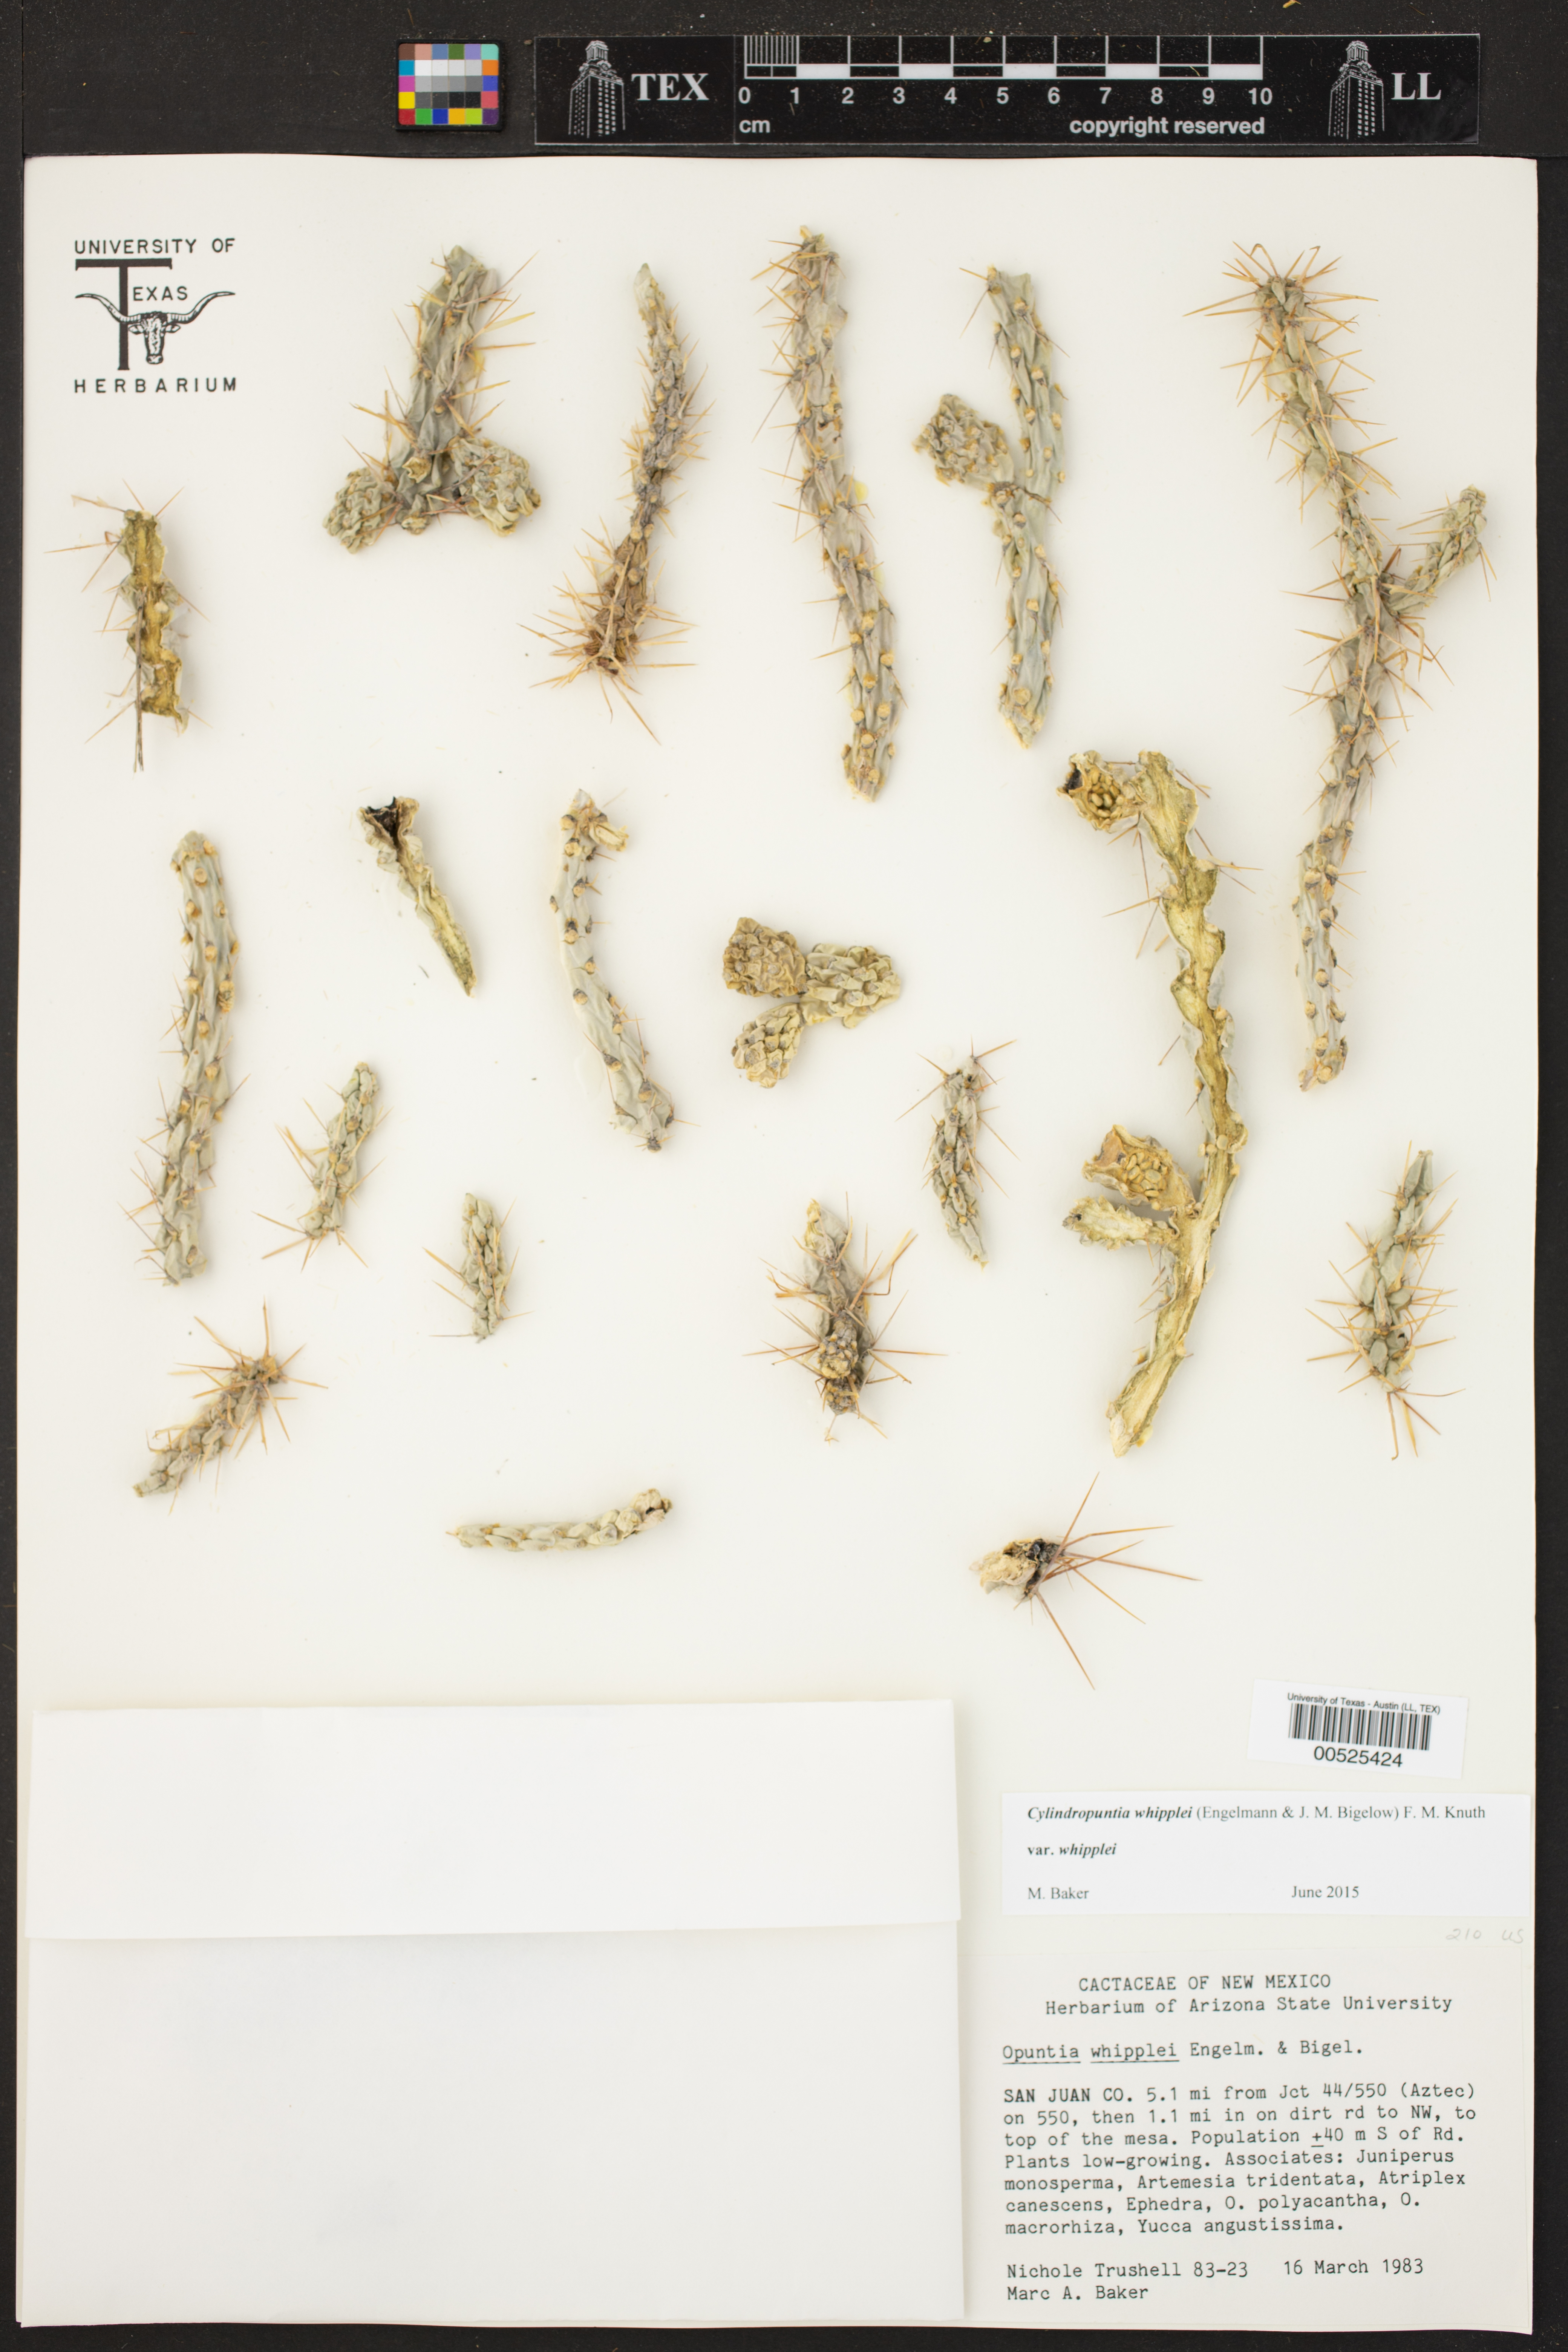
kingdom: Plantae
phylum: Tracheophyta
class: Magnoliopsida
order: Caryophyllales
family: Cactaceae
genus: Cylindropuntia
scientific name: Cylindropuntia whipplei
